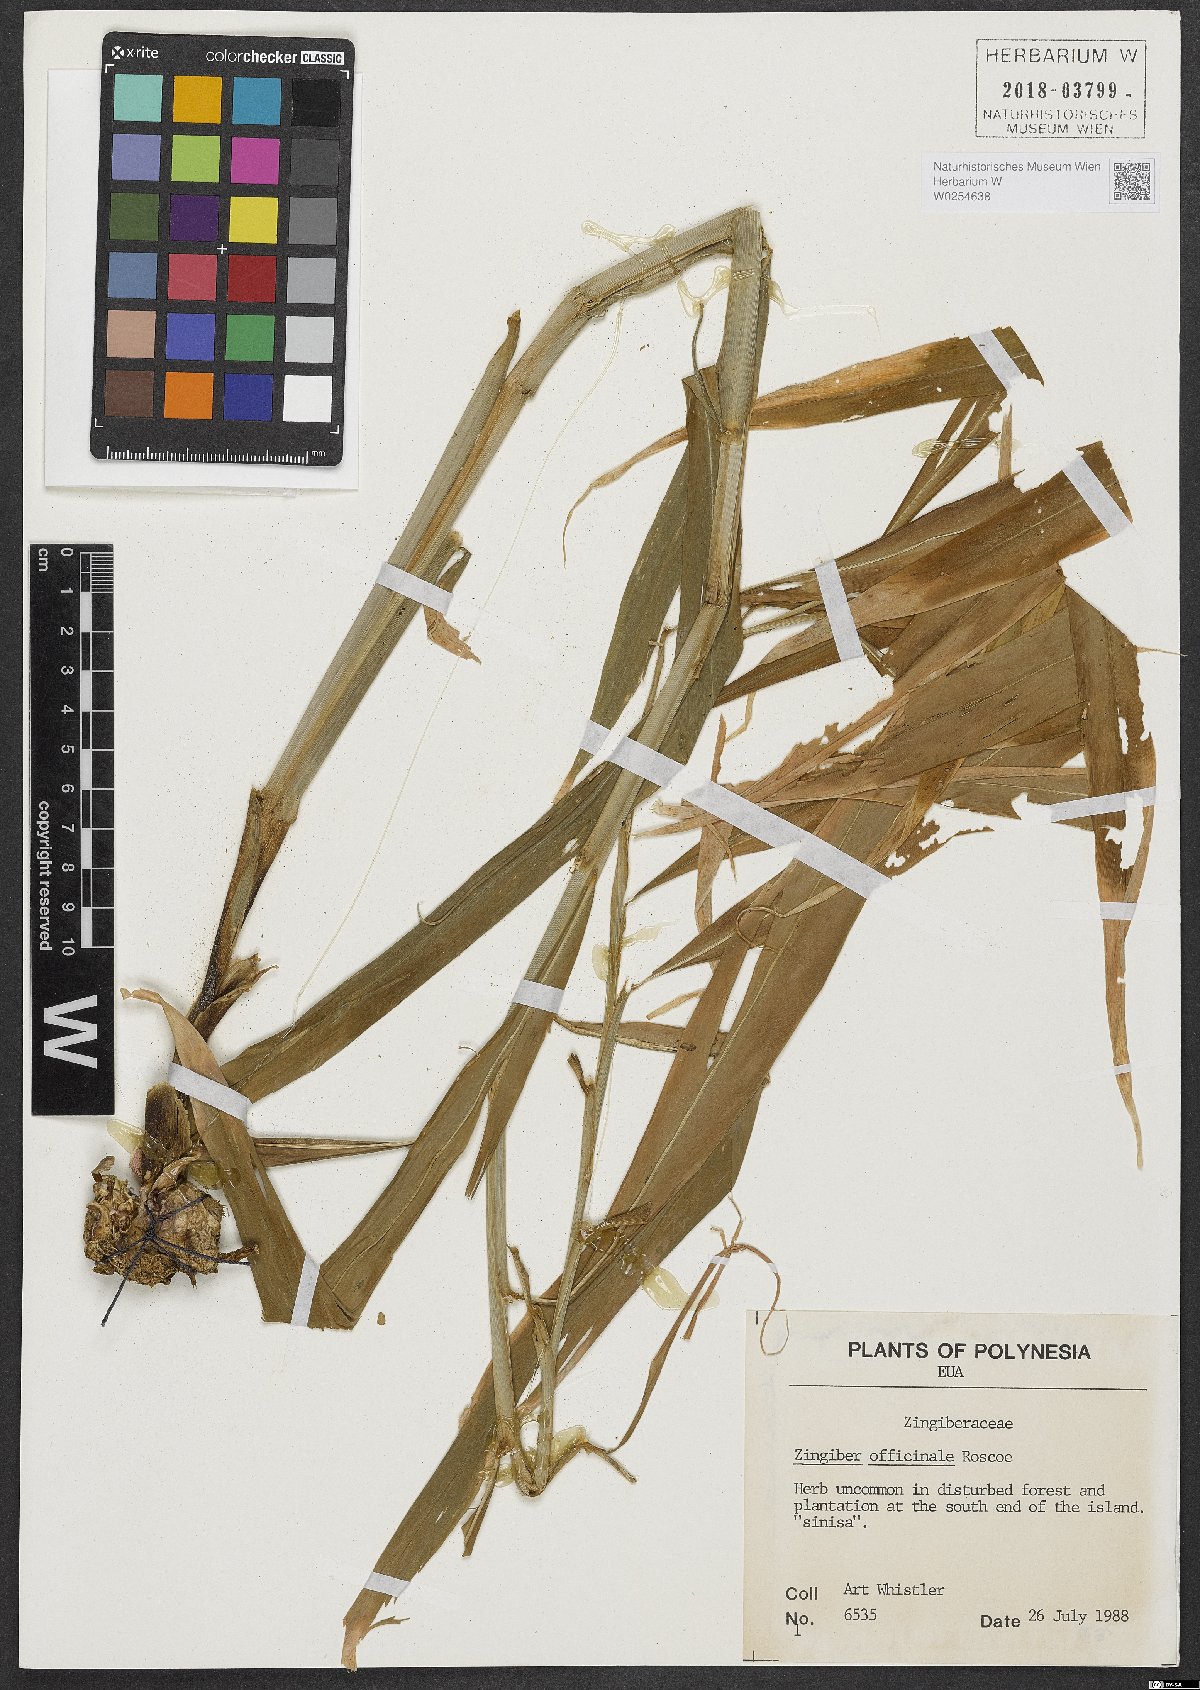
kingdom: Plantae
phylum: Tracheophyta
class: Liliopsida
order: Zingiberales
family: Zingiberaceae
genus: Zingiber
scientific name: Zingiber officinale
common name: Ginger
